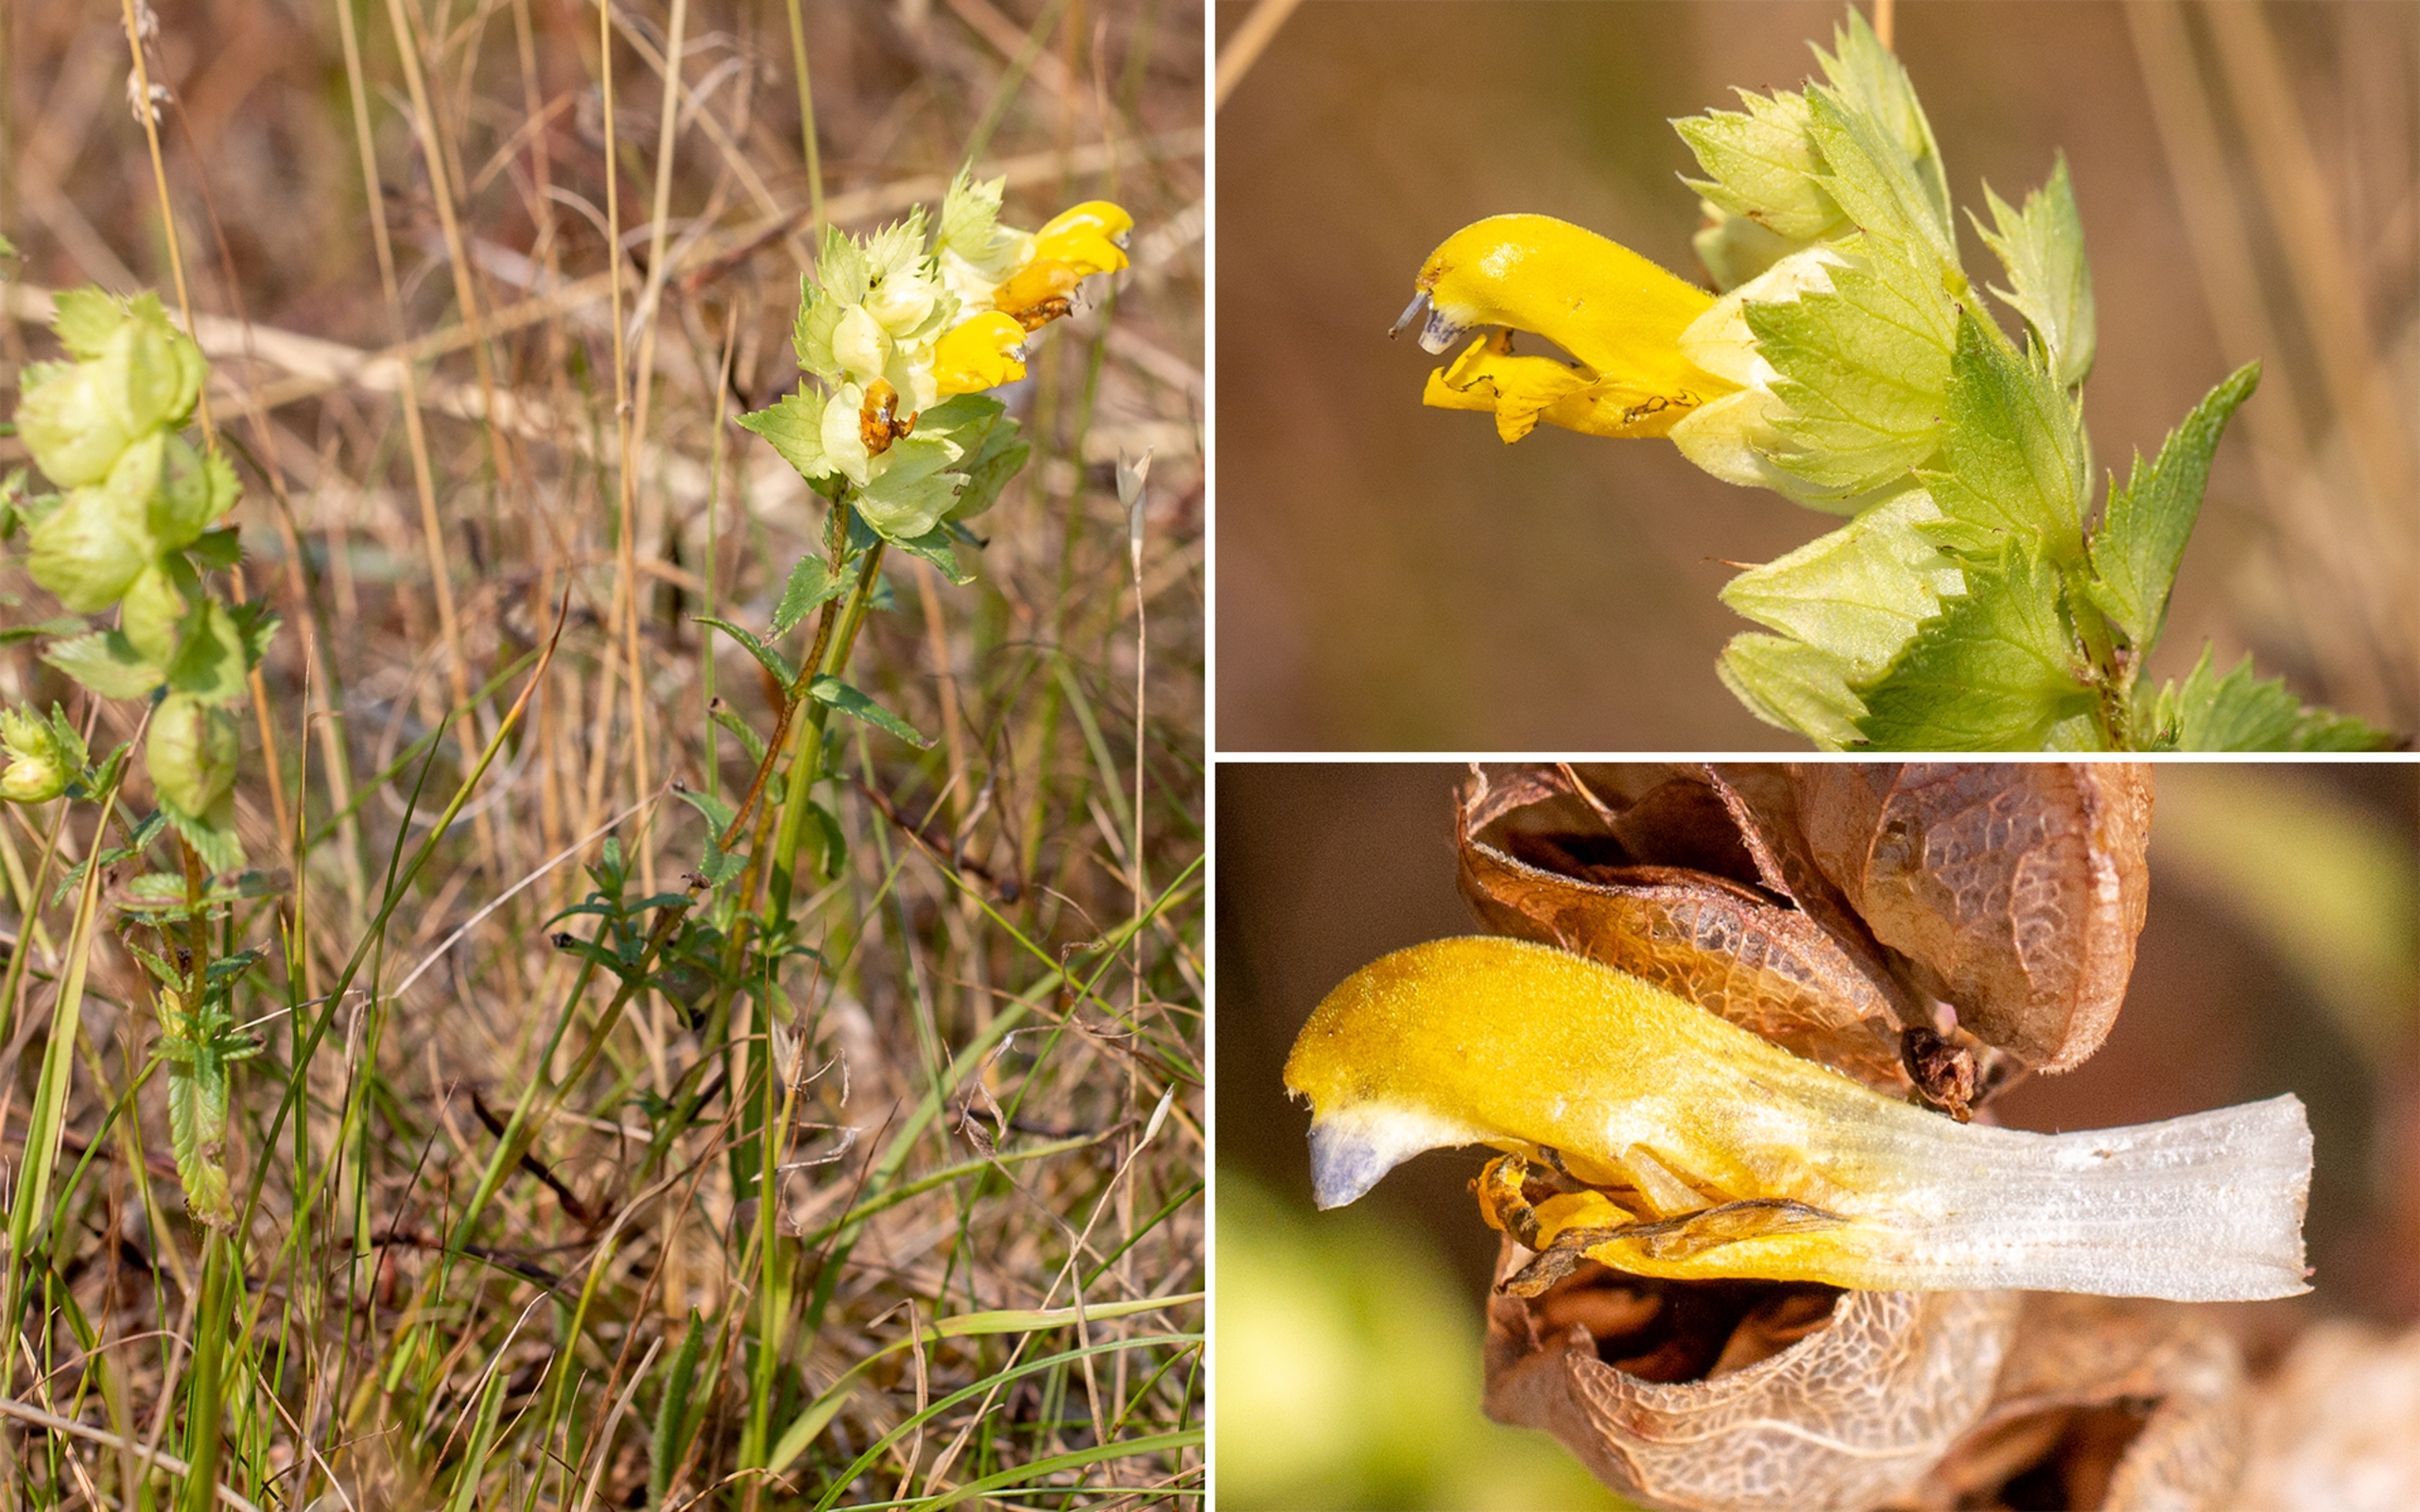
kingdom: Plantae
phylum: Tracheophyta
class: Magnoliopsida
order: Lamiales
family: Orobanchaceae
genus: Rhinanthus
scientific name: Rhinanthus
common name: Stor skjaller
